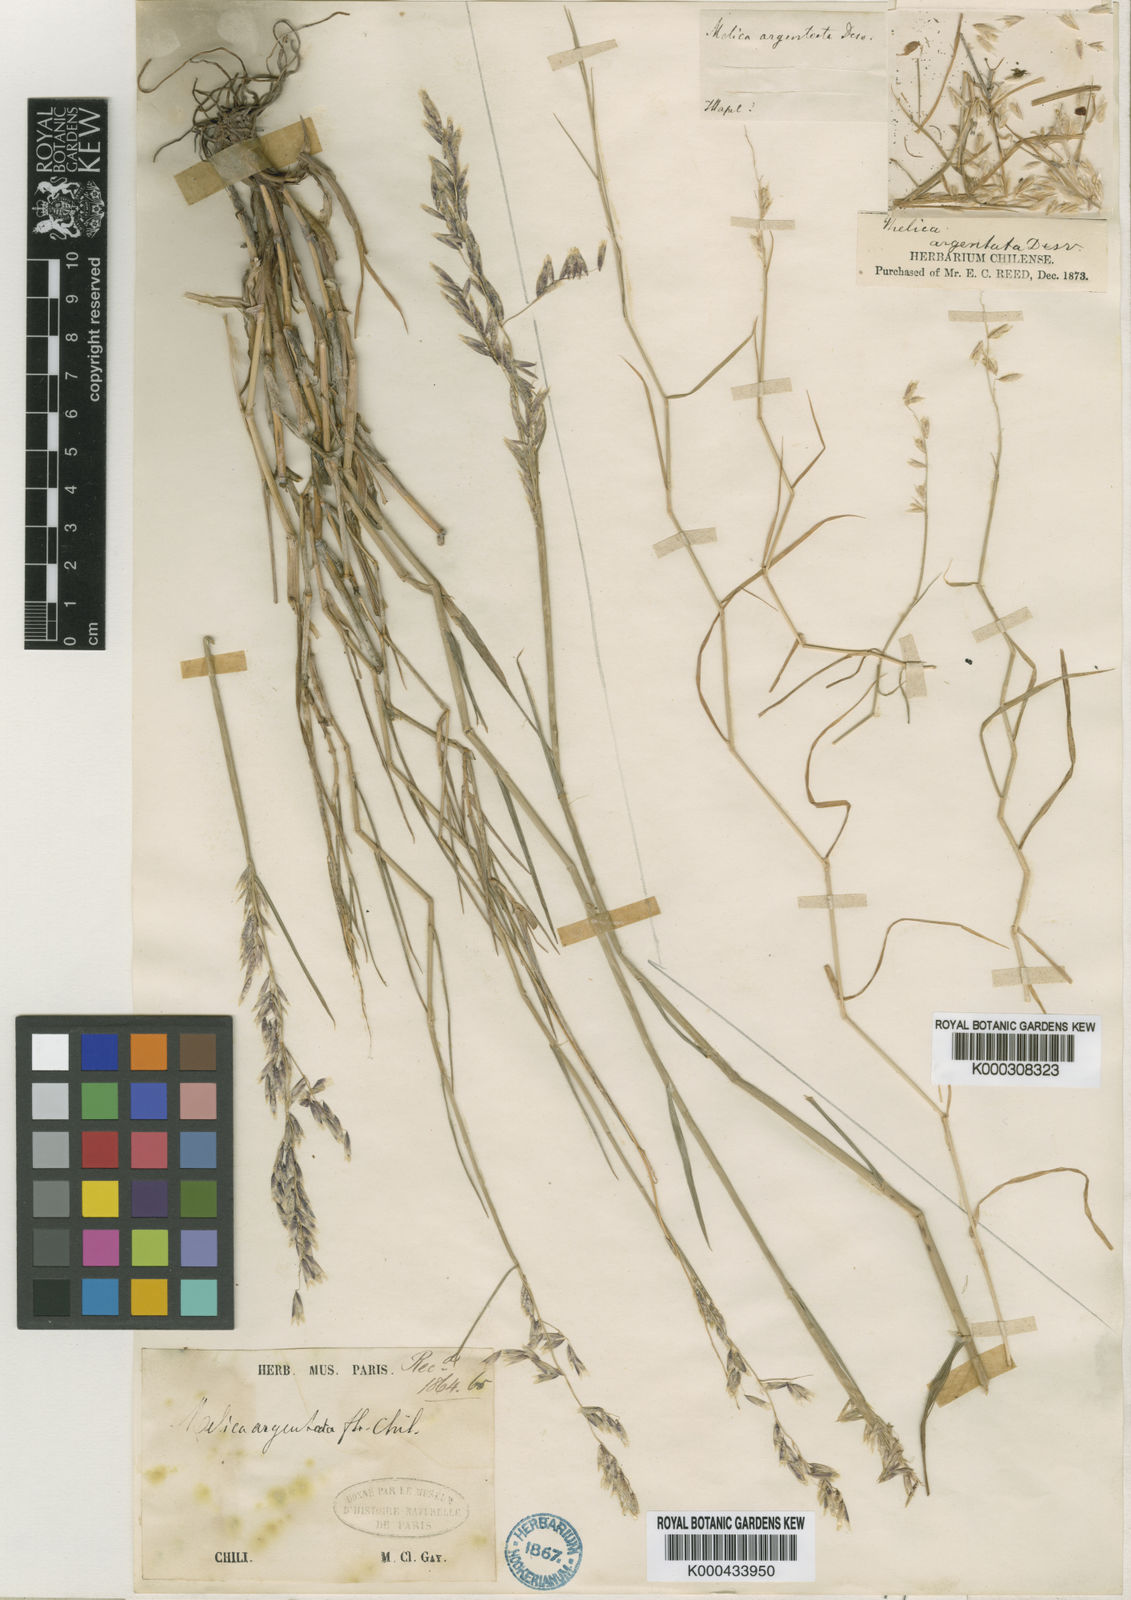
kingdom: Plantae
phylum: Tracheophyta
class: Liliopsida
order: Poales
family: Poaceae
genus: Melica
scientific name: Melica argentata
